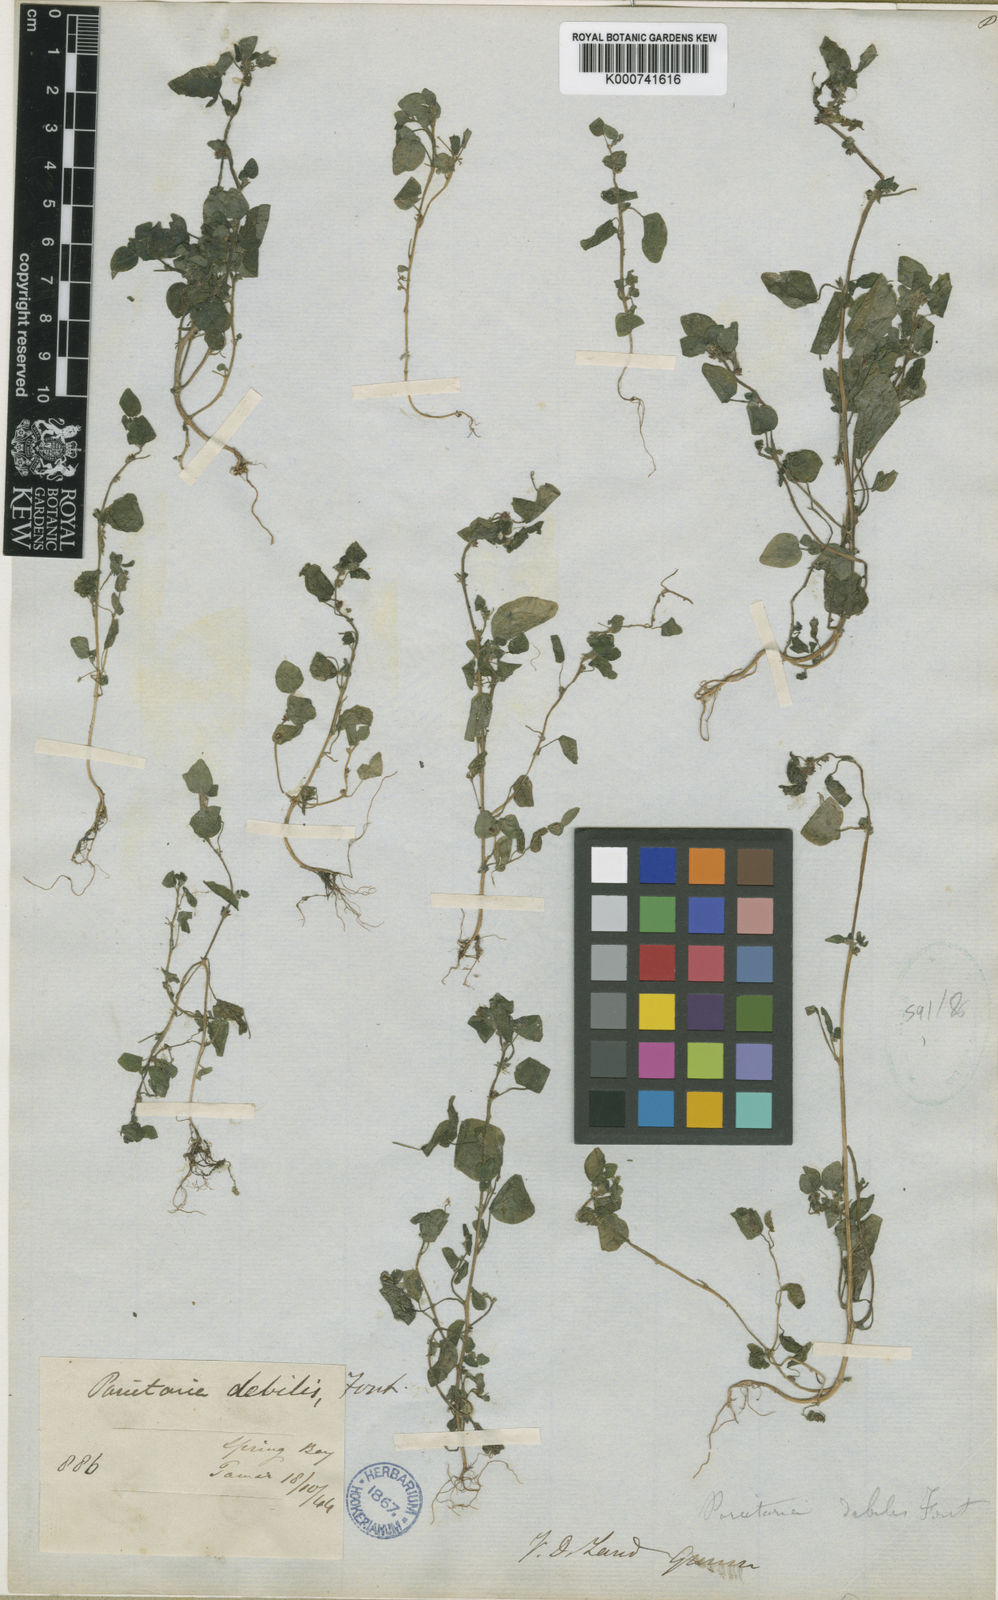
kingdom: Plantae
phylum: Tracheophyta
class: Magnoliopsida
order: Rosales
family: Urticaceae
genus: Parietaria
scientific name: Parietaria cardiostegia
